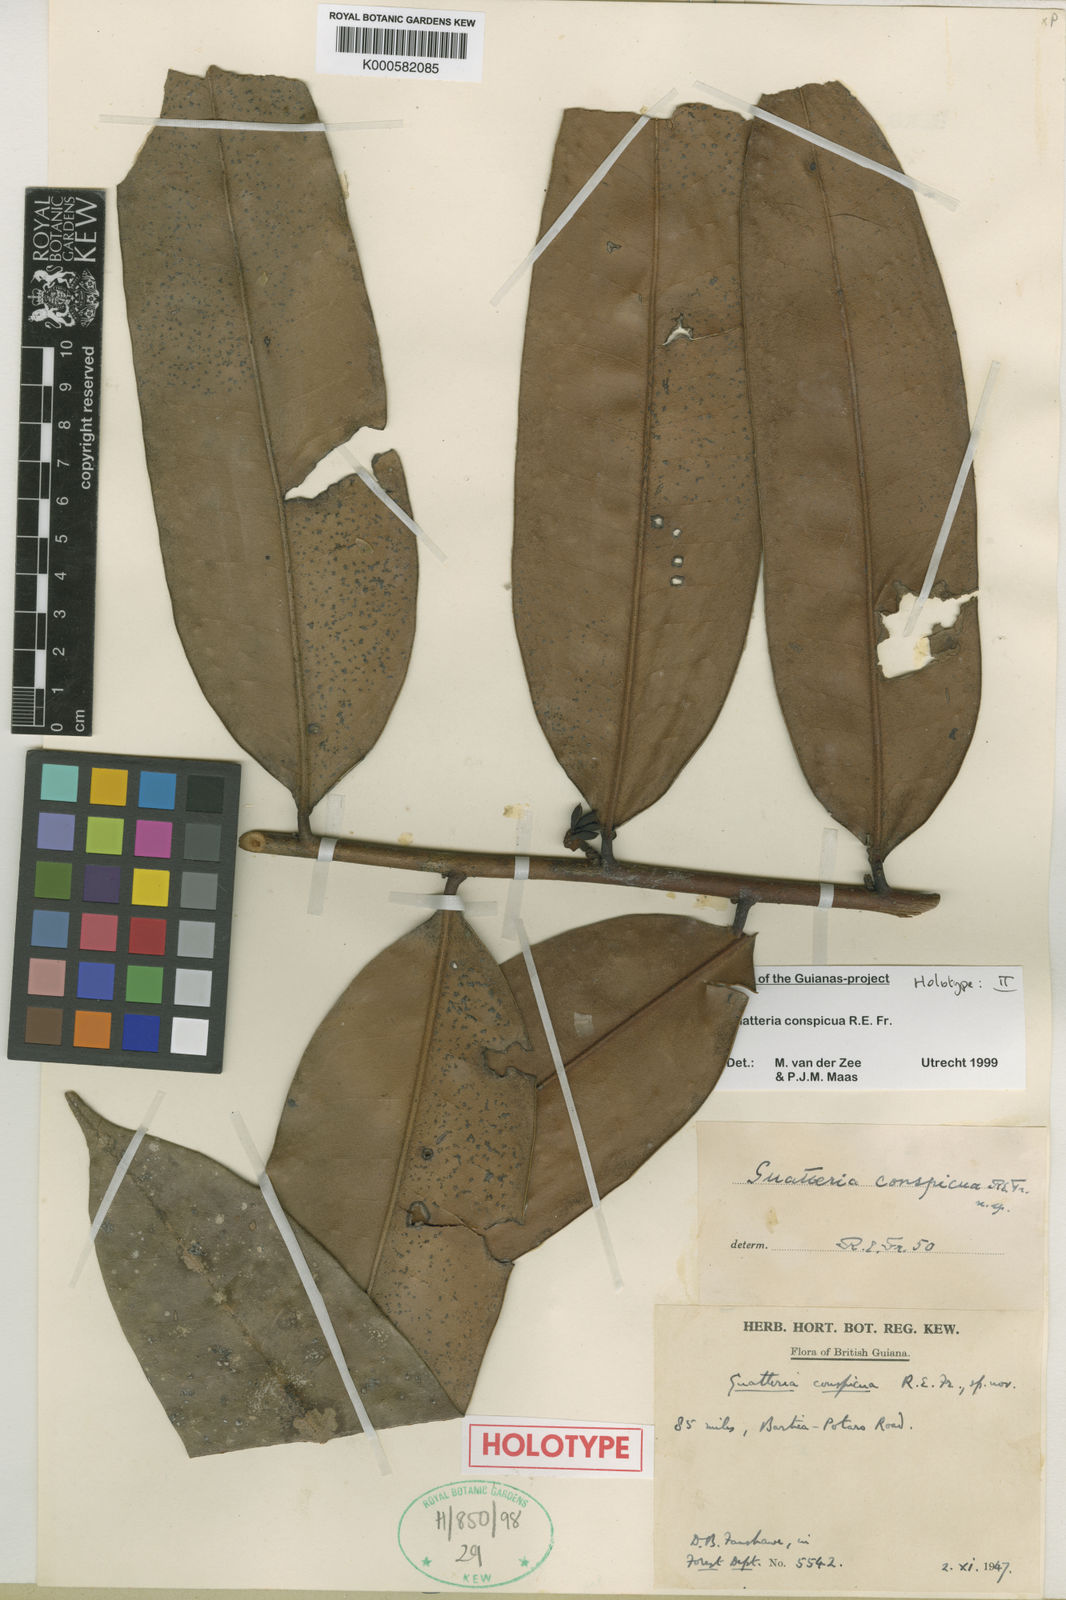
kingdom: Plantae
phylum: Tracheophyta
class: Magnoliopsida
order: Magnoliales
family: Annonaceae
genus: Guatteria
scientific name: Guatteria conspicua
